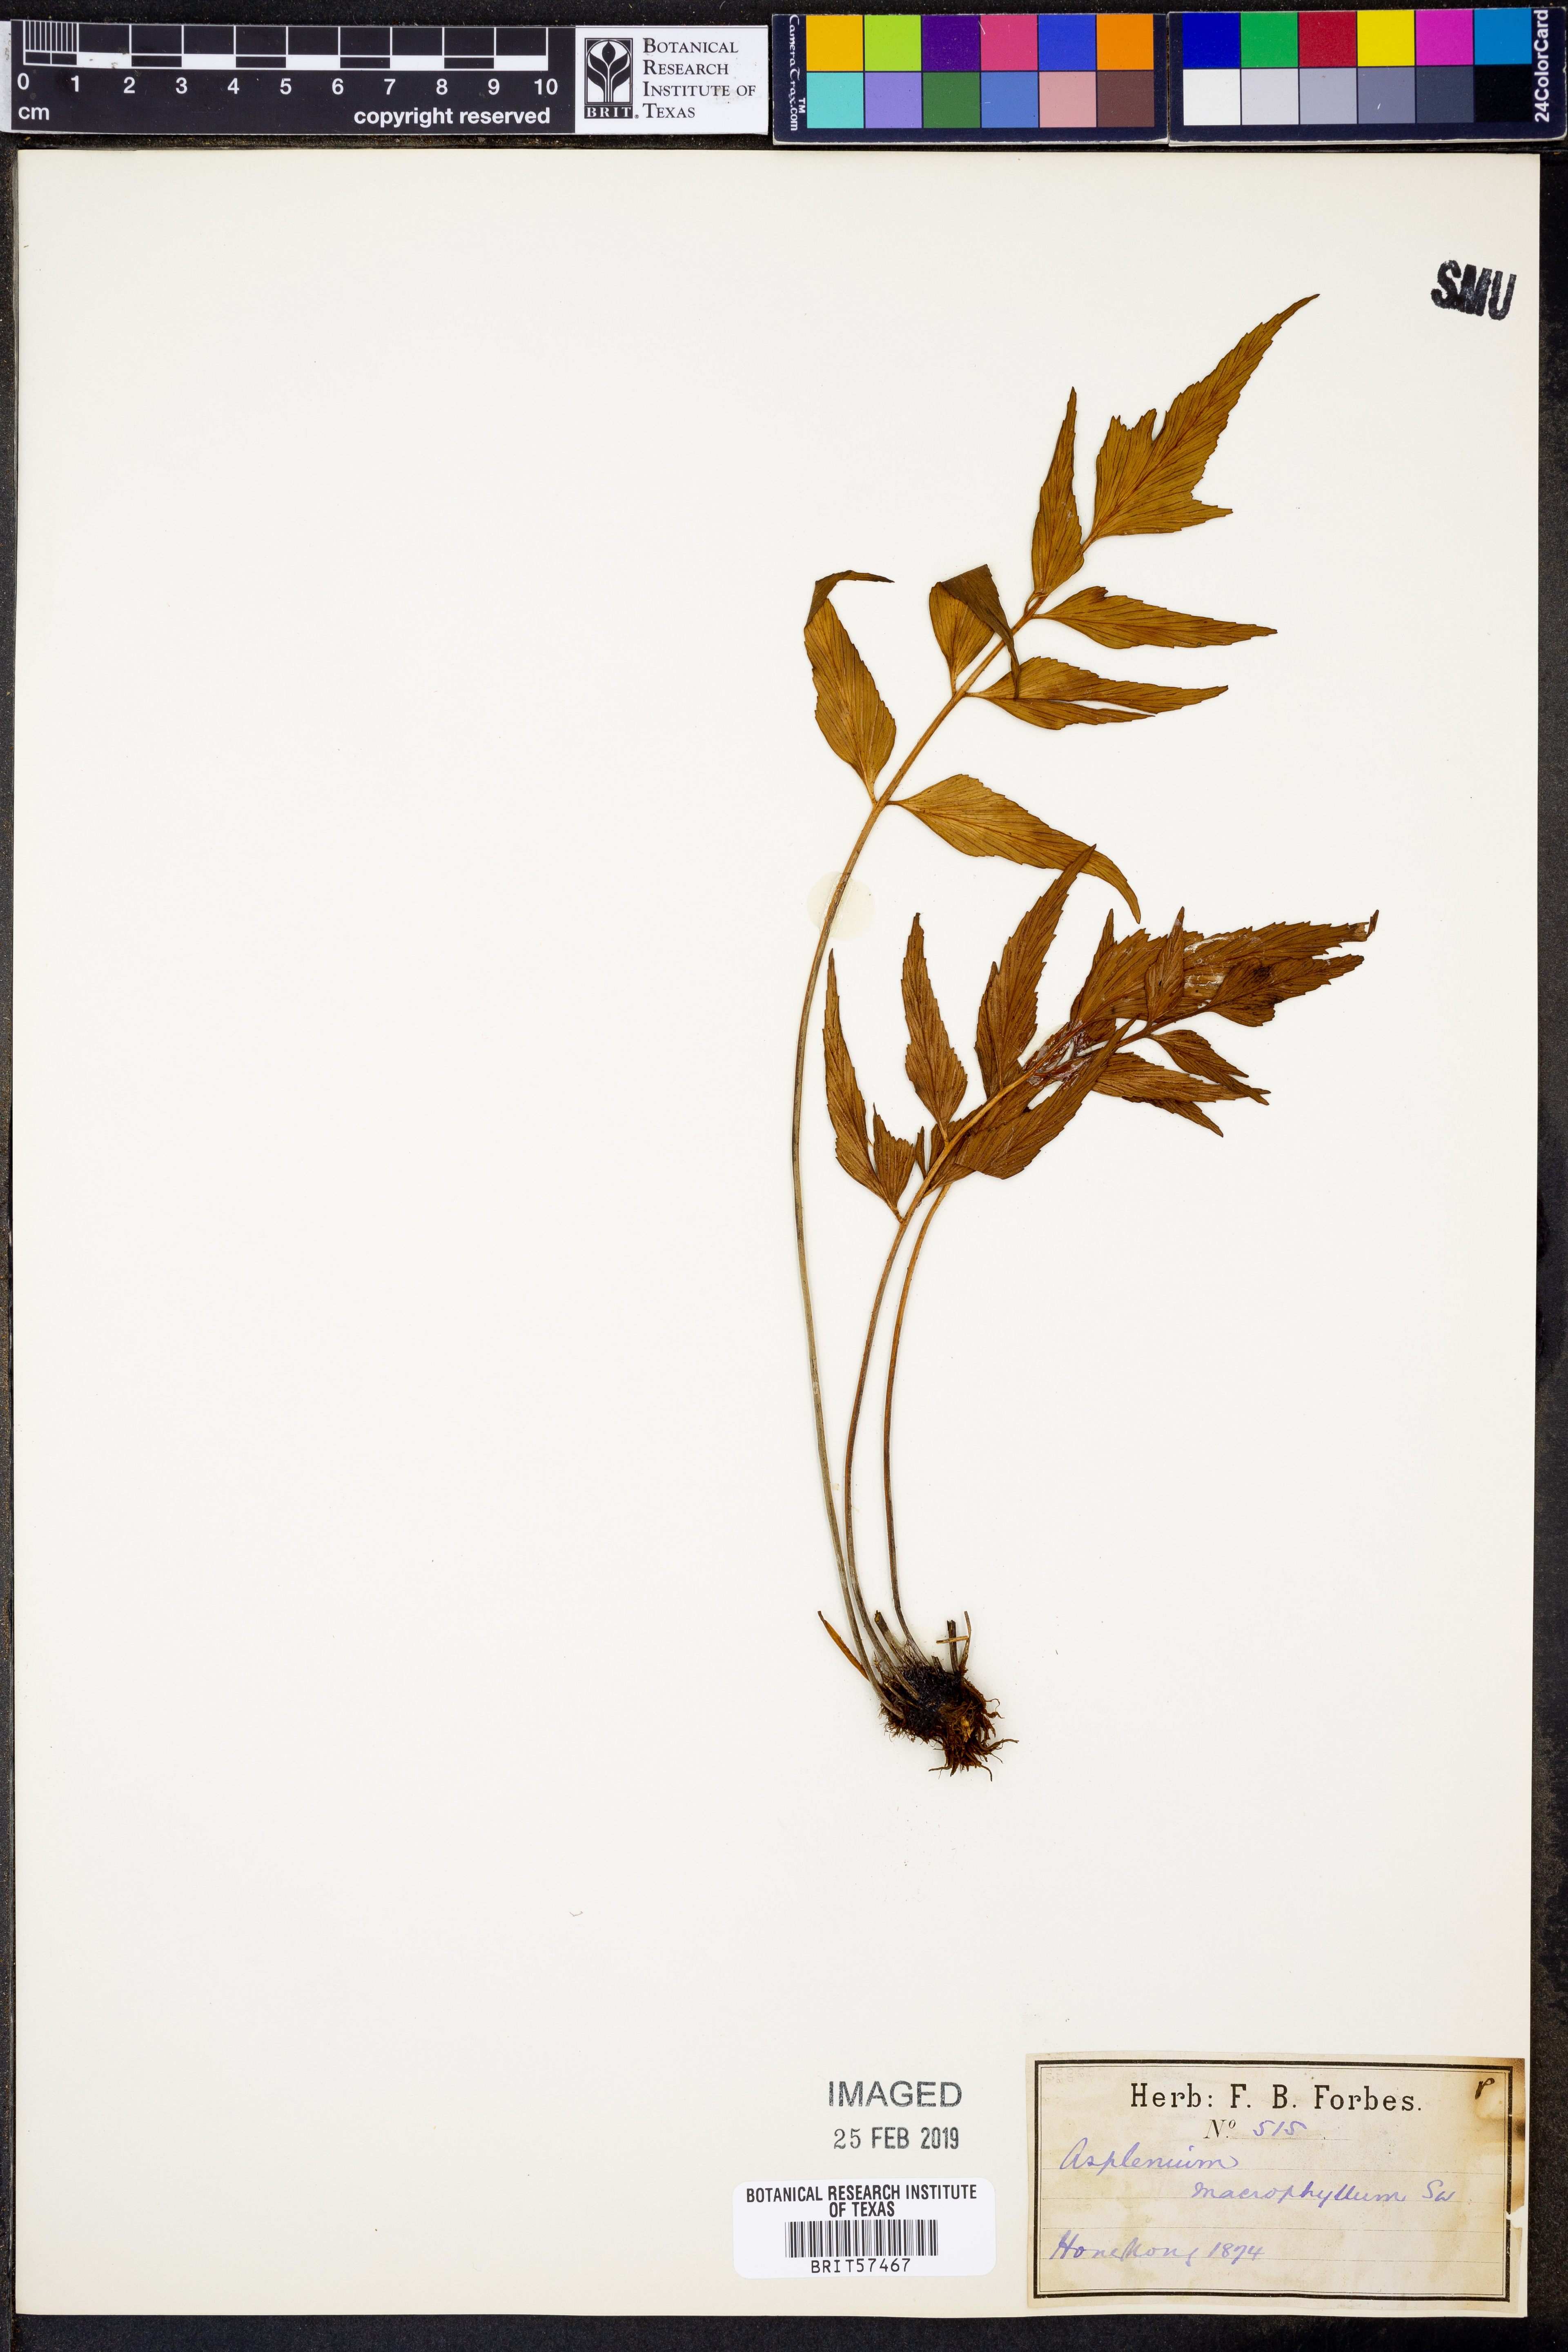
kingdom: Plantae
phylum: Tracheophyta
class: Polypodiopsida
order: Polypodiales
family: Aspleniaceae
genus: Asplenium
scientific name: Asplenium macrophyllum
